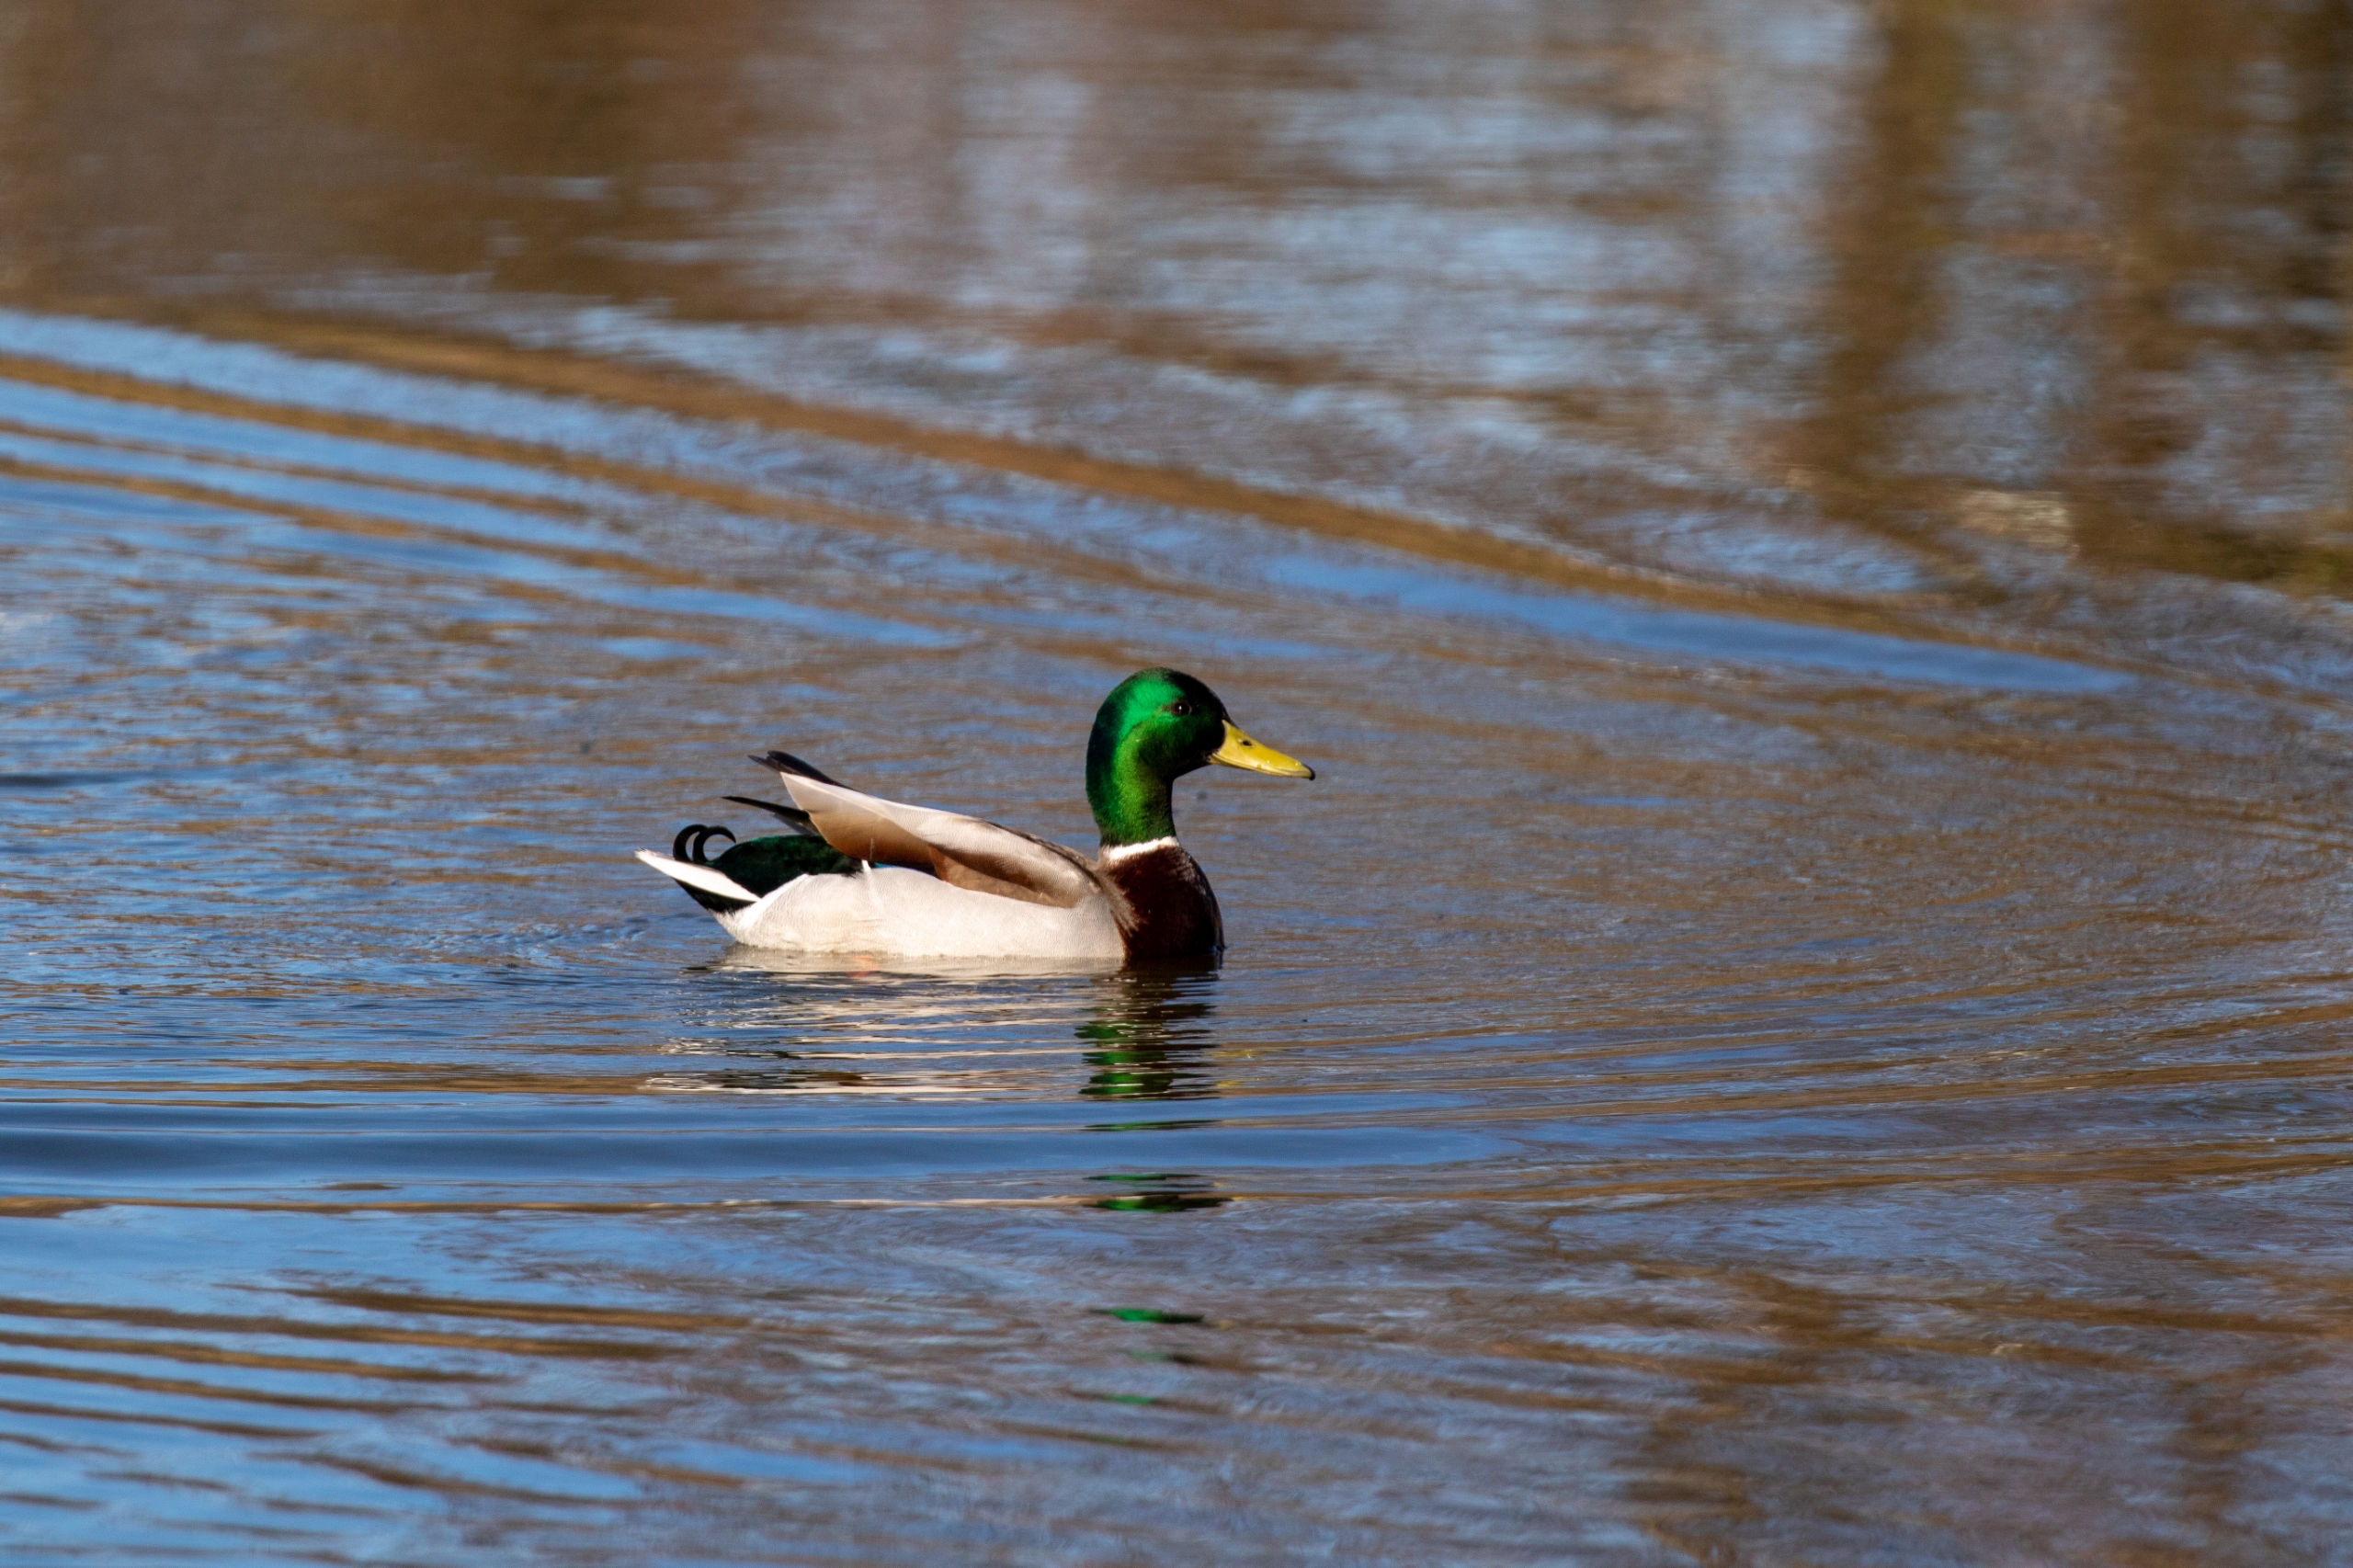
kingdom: Animalia
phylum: Chordata
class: Aves
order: Anseriformes
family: Anatidae
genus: Anas
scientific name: Anas platyrhynchos
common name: Gråand
